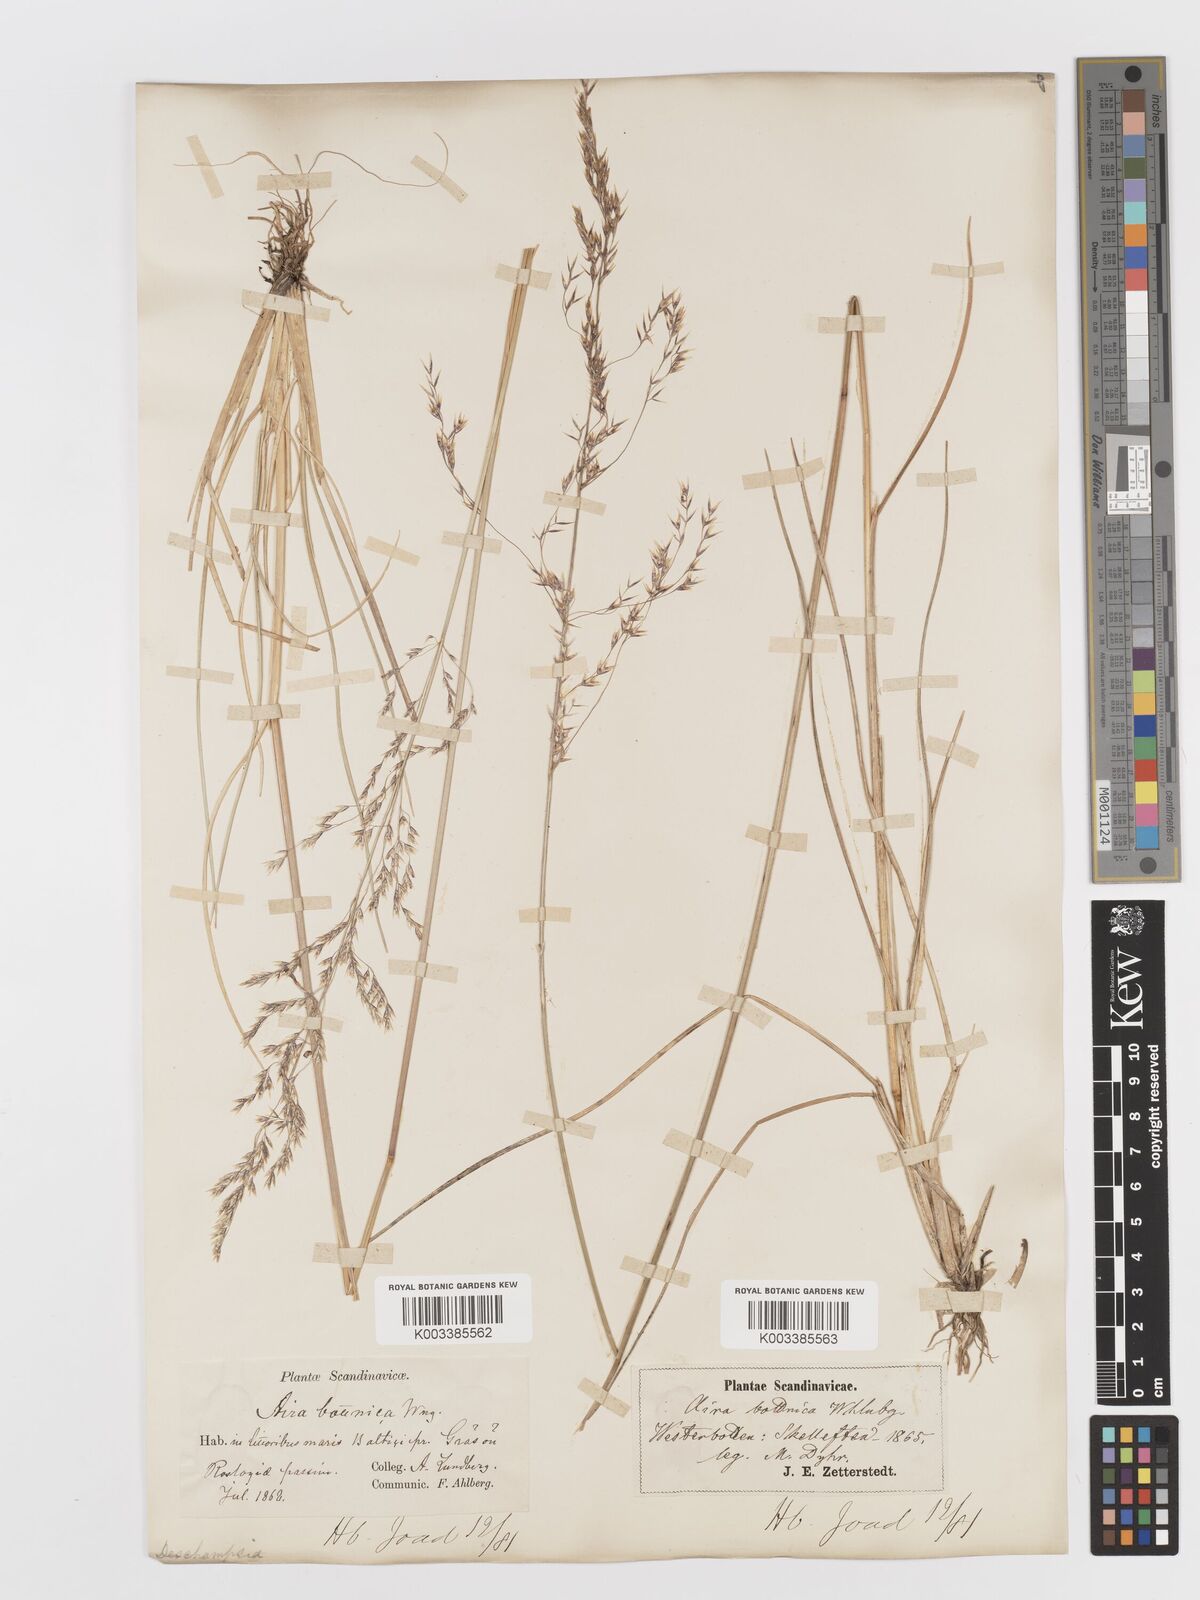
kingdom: Plantae
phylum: Tracheophyta
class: Liliopsida
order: Poales
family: Poaceae
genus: Deschampsia
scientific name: Deschampsia cespitosa
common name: Tufted hair-grass
